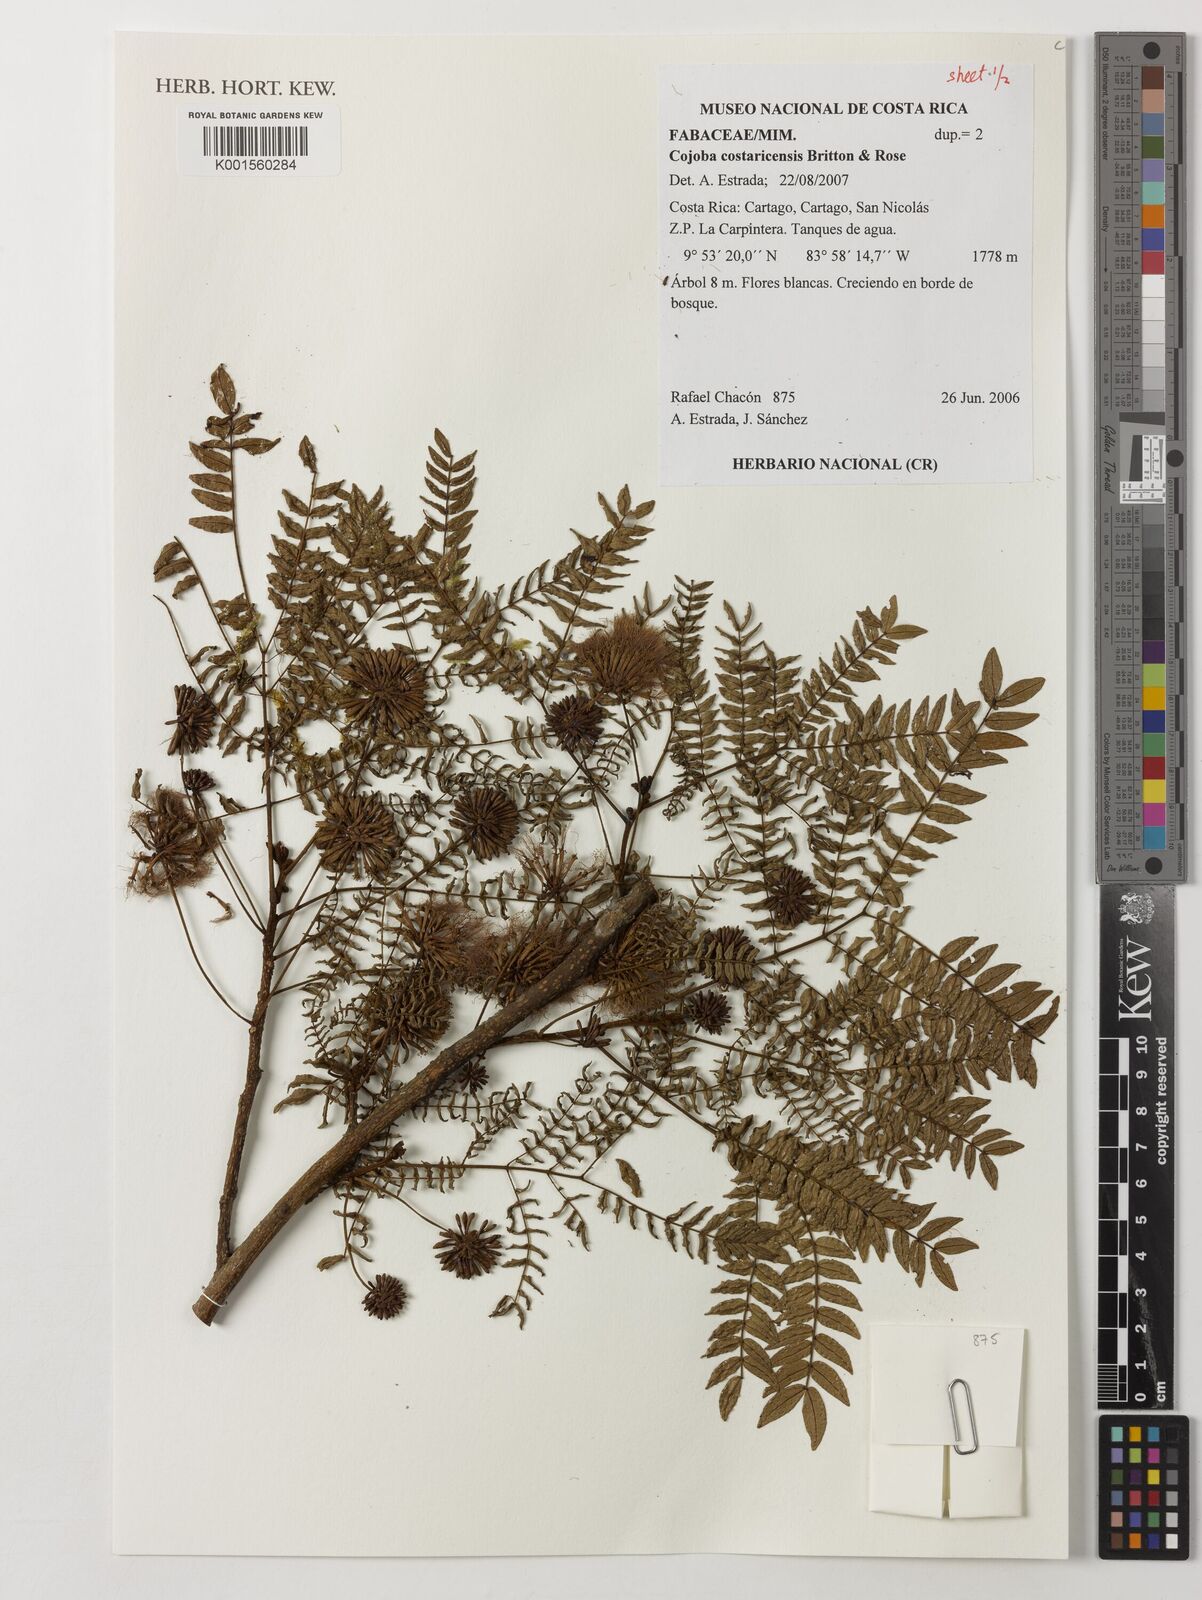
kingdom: Plantae
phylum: Tracheophyta
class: Magnoliopsida
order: Fabales
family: Fabaceae
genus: Cojoba
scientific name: Cojoba costaricensis
